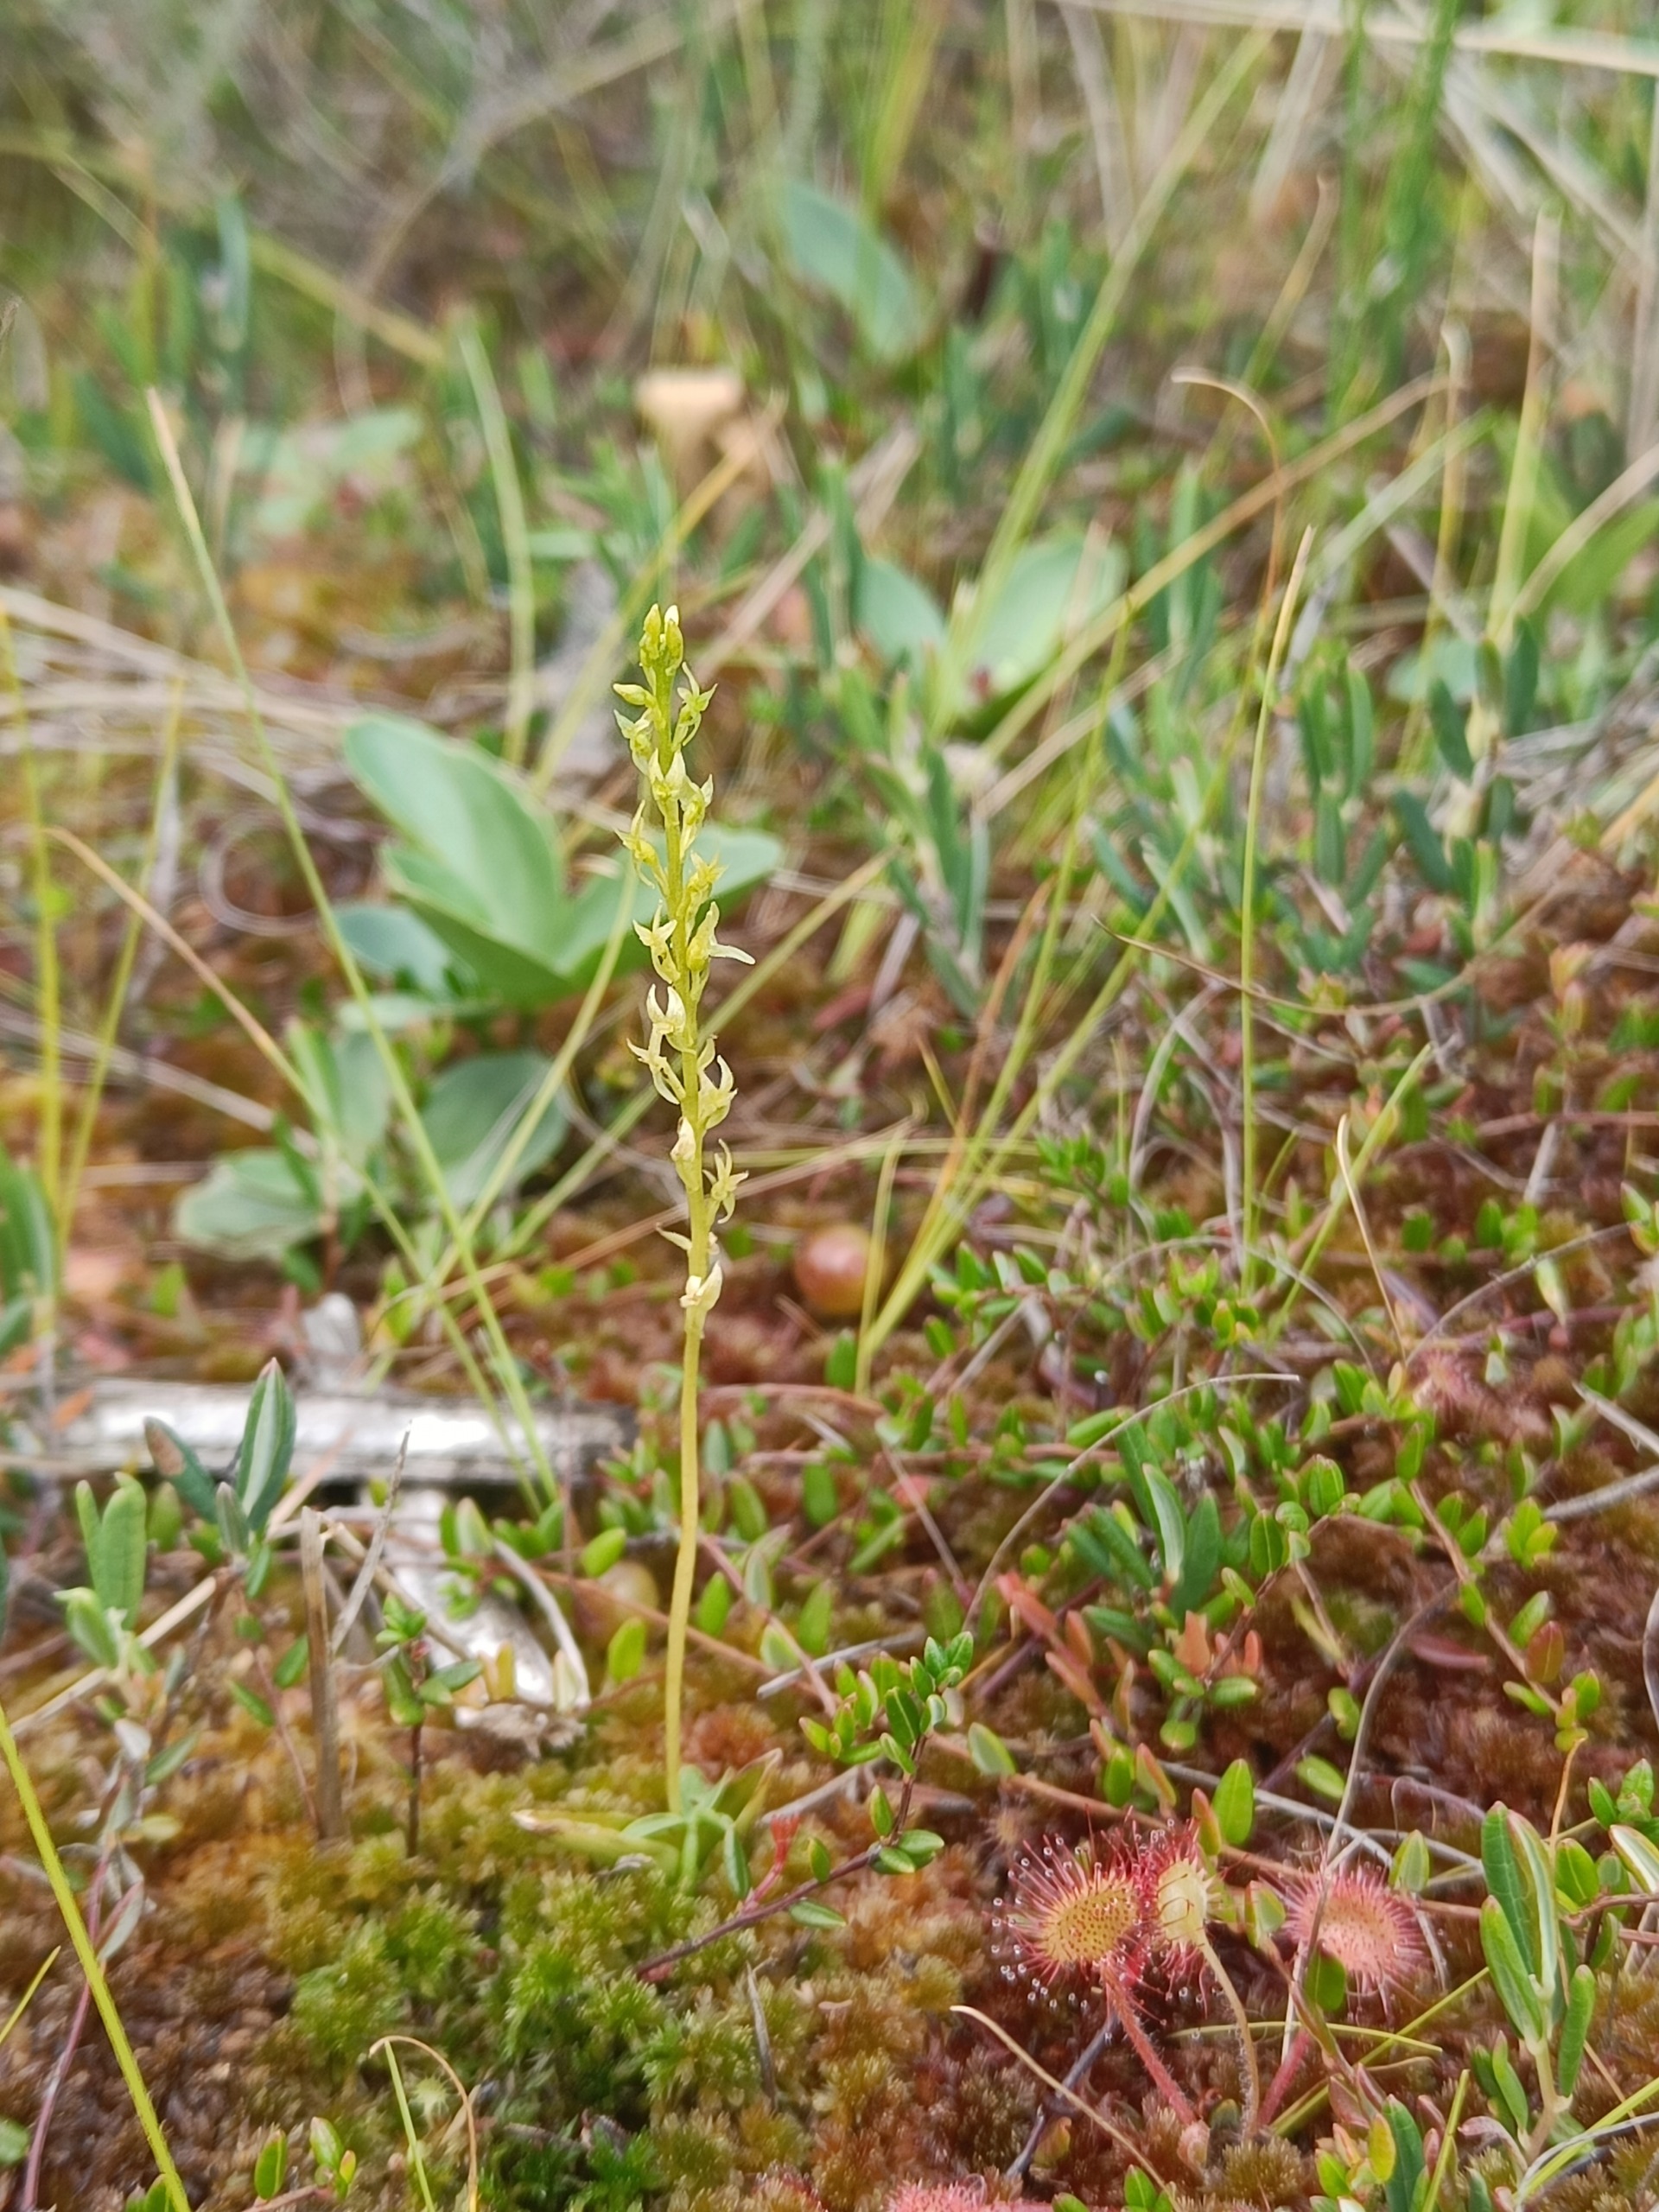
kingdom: Plantae
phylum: Tracheophyta
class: Liliopsida
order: Asparagales
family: Orchidaceae
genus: Hammarbya
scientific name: Hammarbya paludosa
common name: Hjertelæbe
